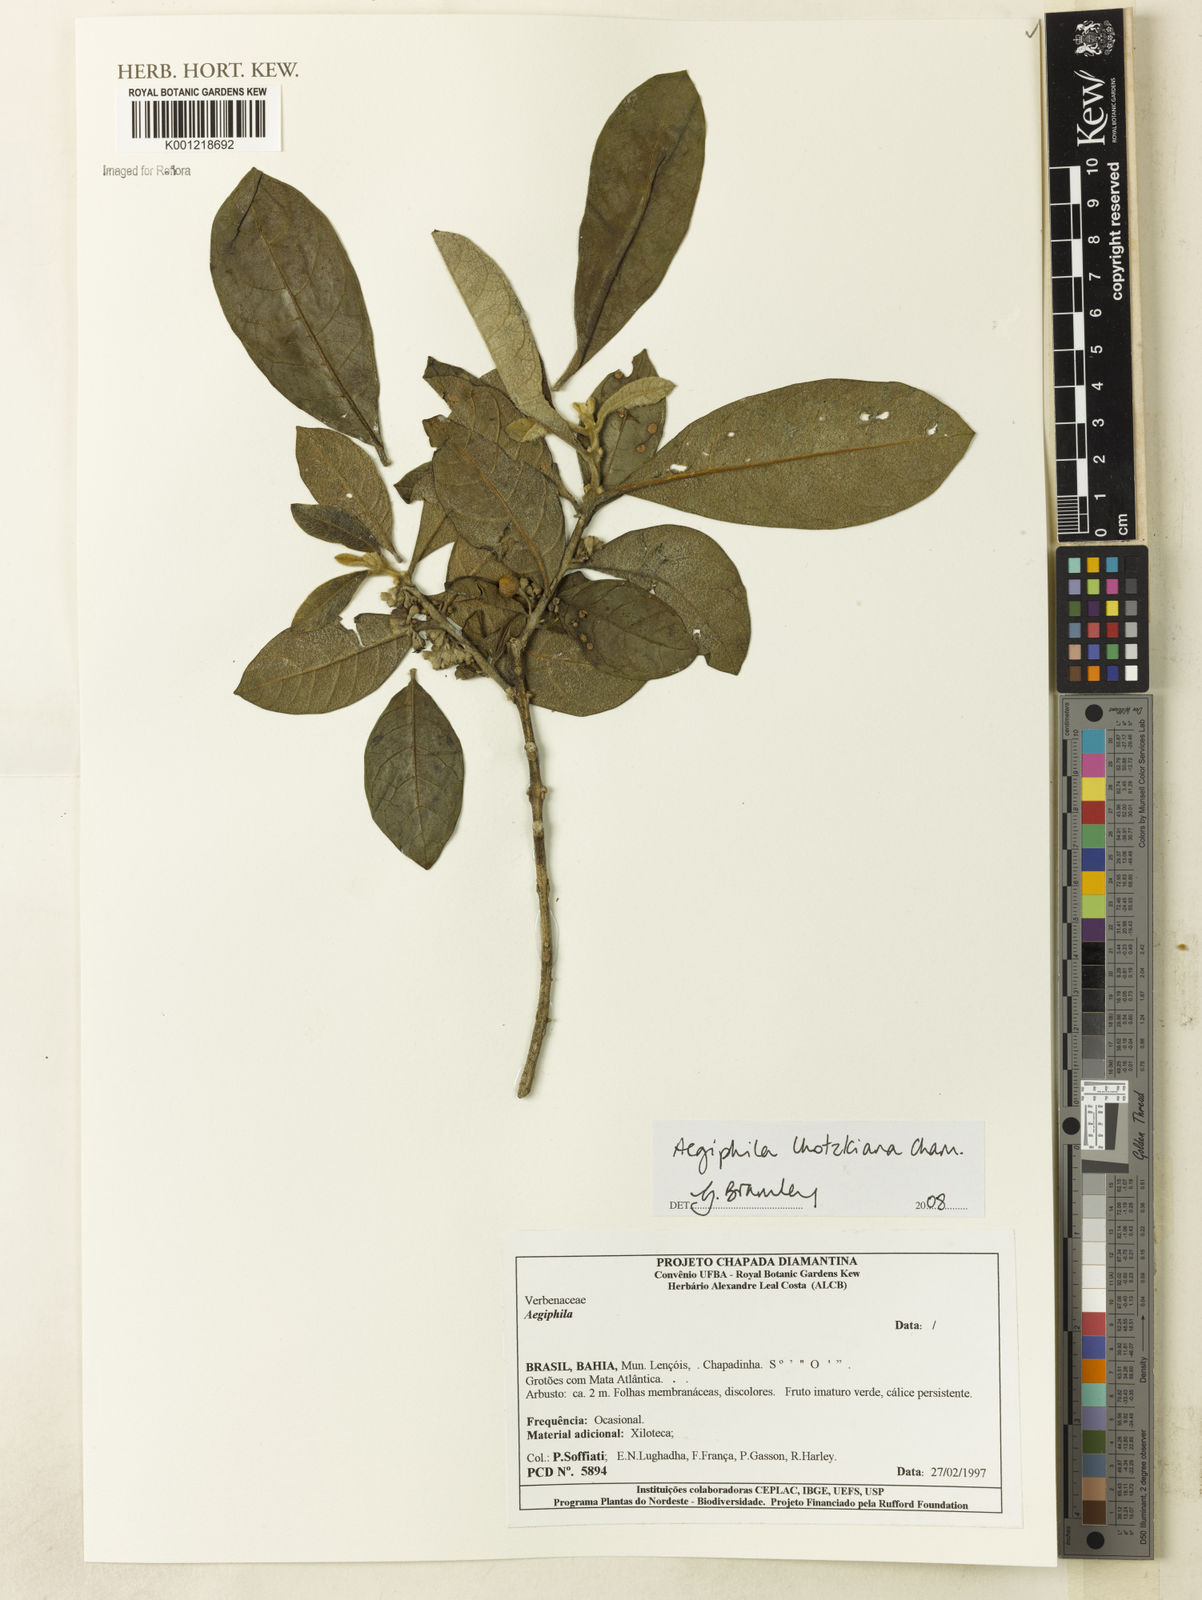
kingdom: Plantae
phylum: Tracheophyta
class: Magnoliopsida
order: Lamiales
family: Lamiaceae
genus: Aegiphila
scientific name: Aegiphila verticillata
